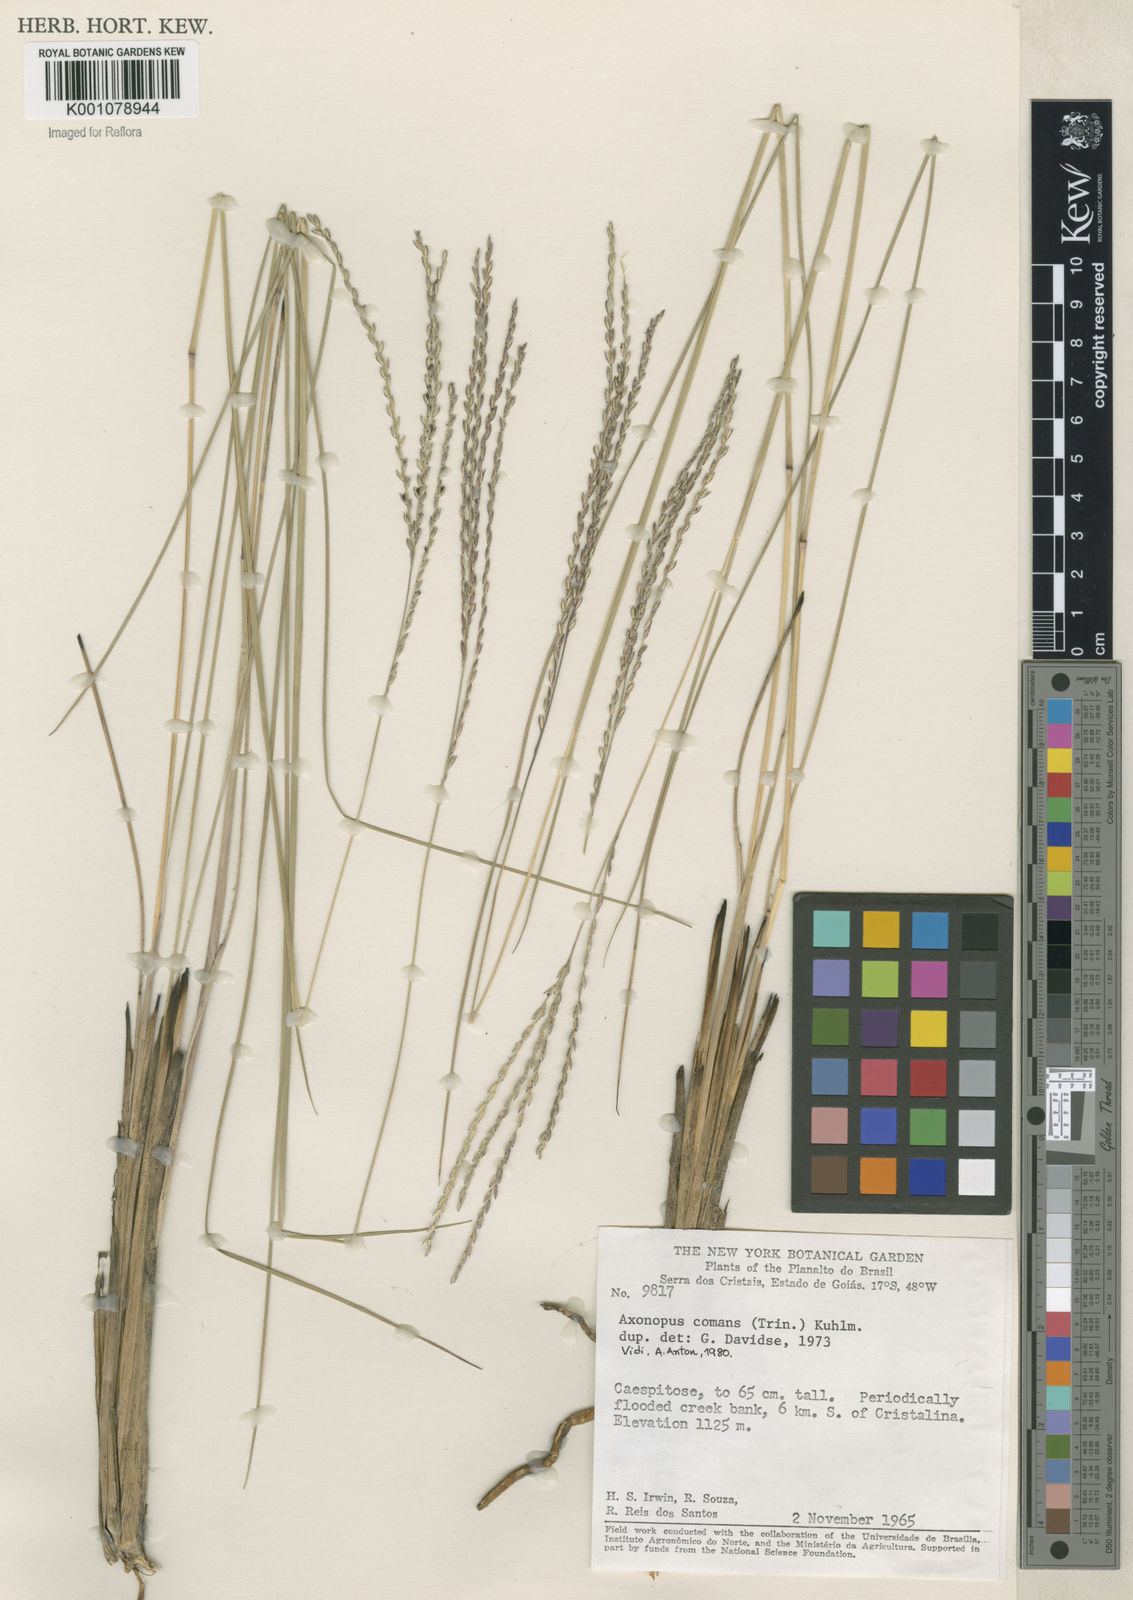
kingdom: Plantae
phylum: Tracheophyta
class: Liliopsida
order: Poales
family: Poaceae
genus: Axonopus
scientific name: Axonopus
